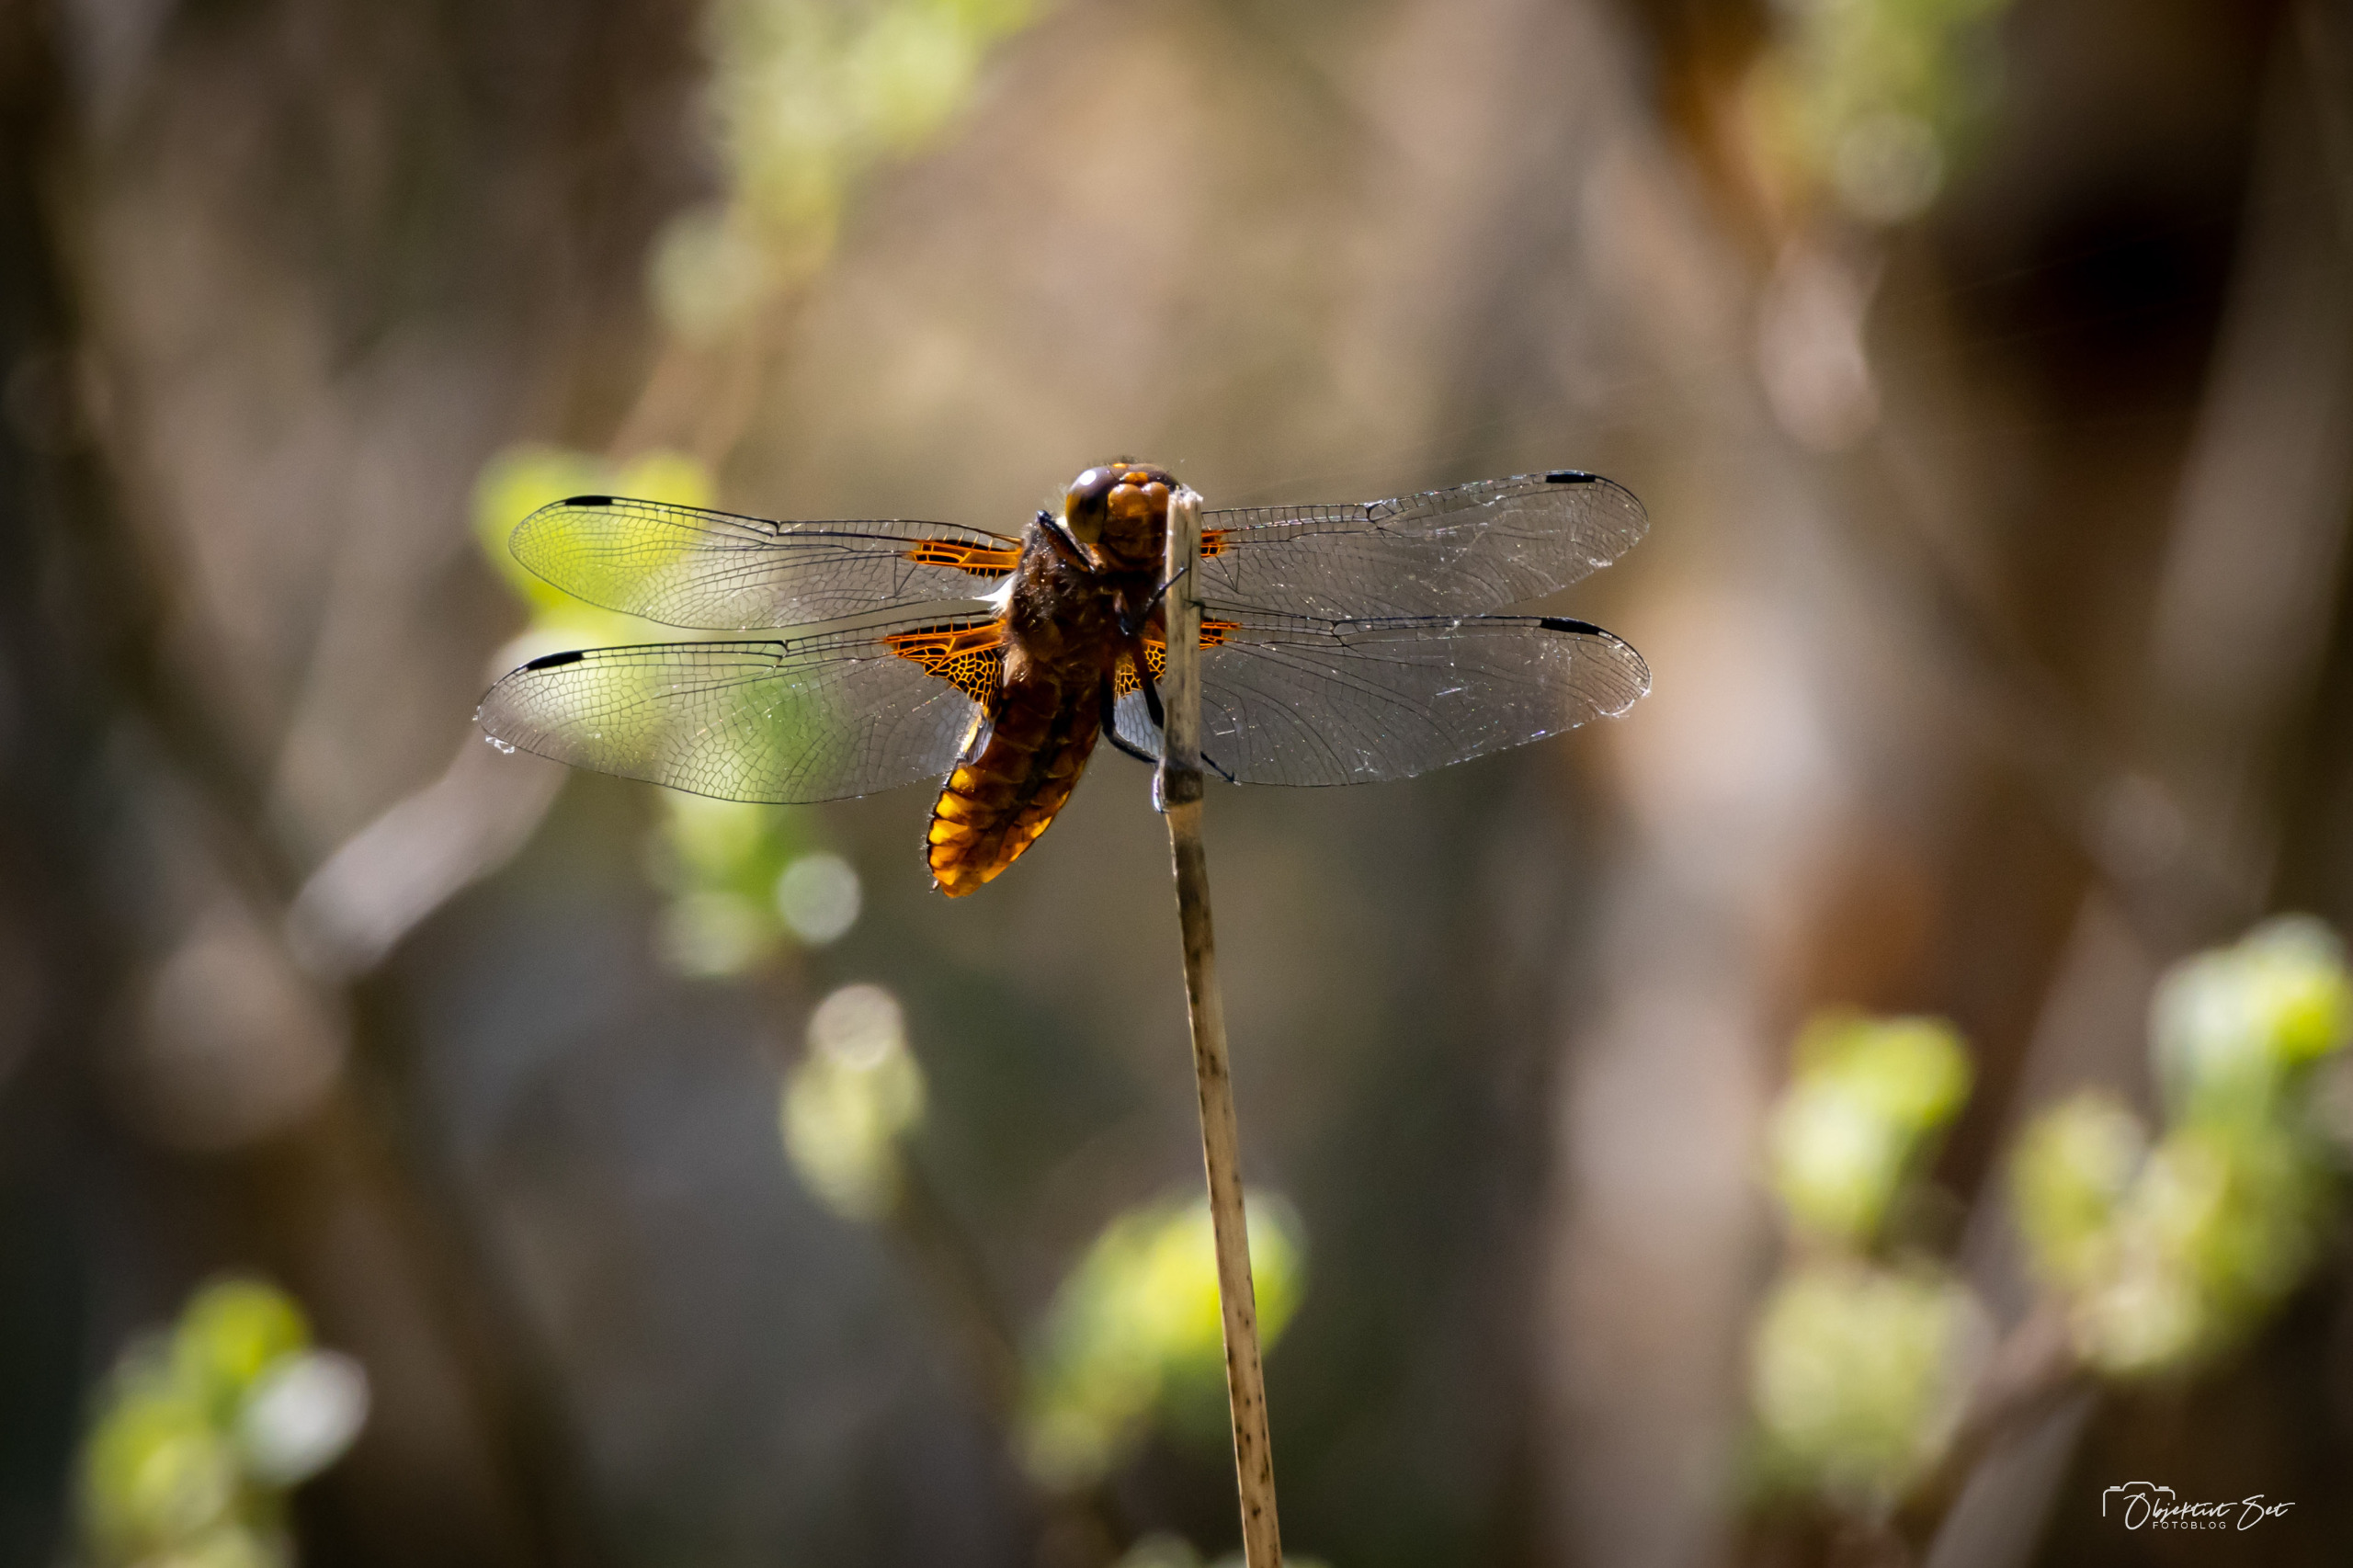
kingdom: Animalia
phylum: Arthropoda
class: Insecta
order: Odonata
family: Libellulidae
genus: Libellula
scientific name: Libellula depressa
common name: Blå libel
